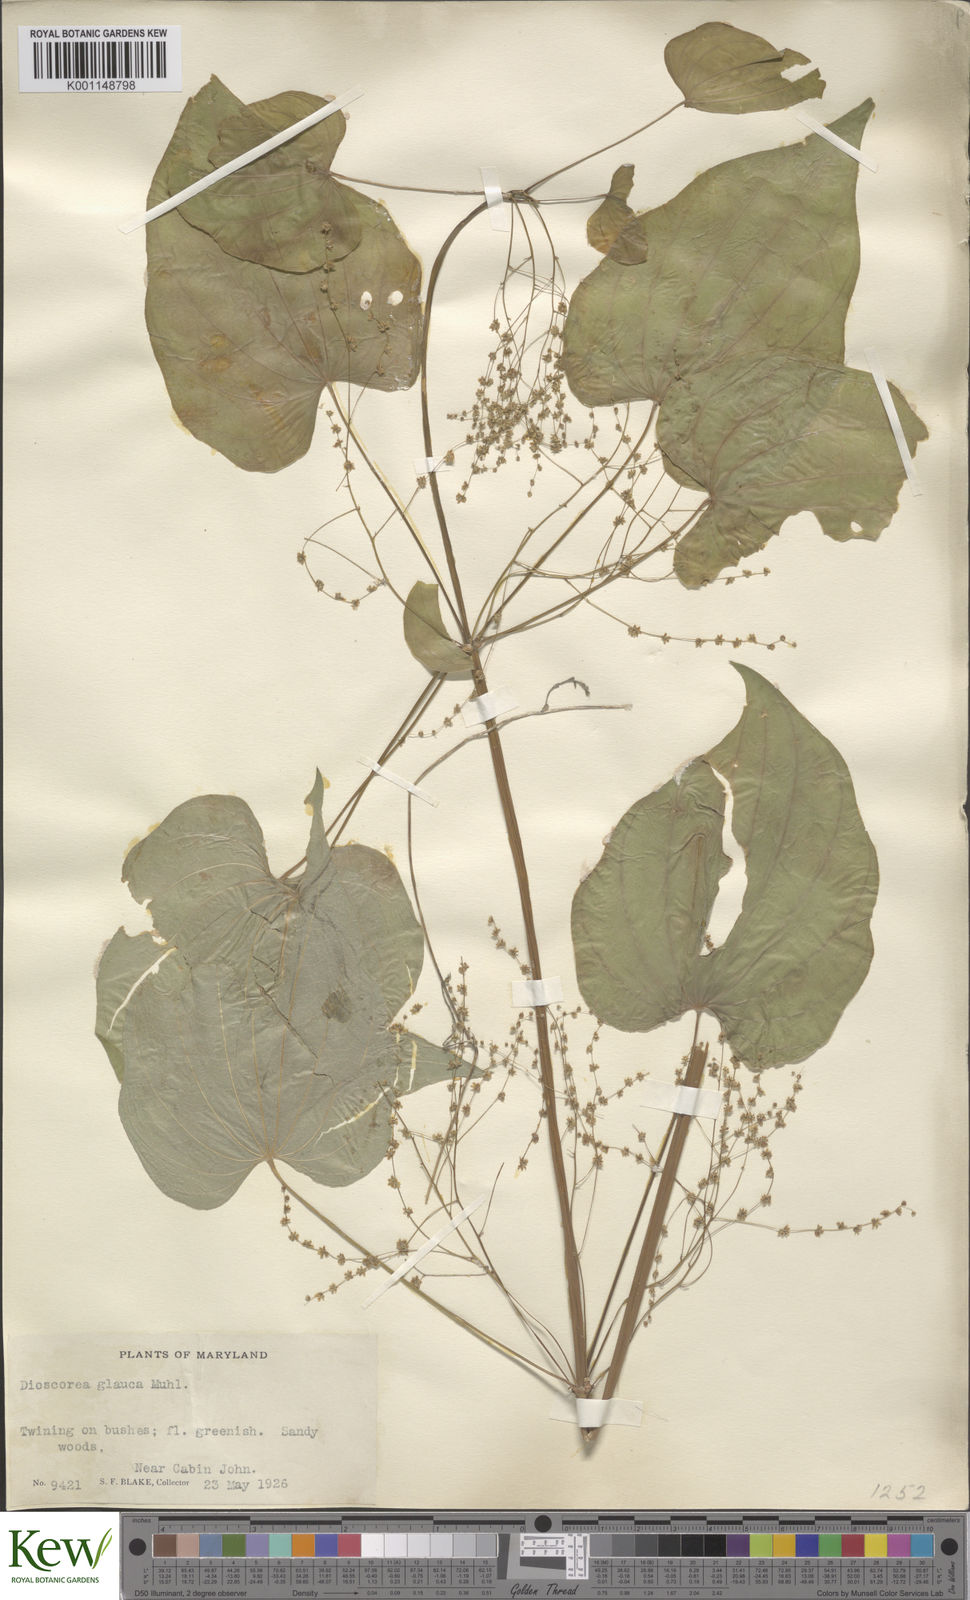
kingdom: Plantae
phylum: Tracheophyta
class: Liliopsida
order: Dioscoreales
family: Dioscoreaceae
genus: Dioscorea
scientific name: Dioscorea villosa
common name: Wild yam
